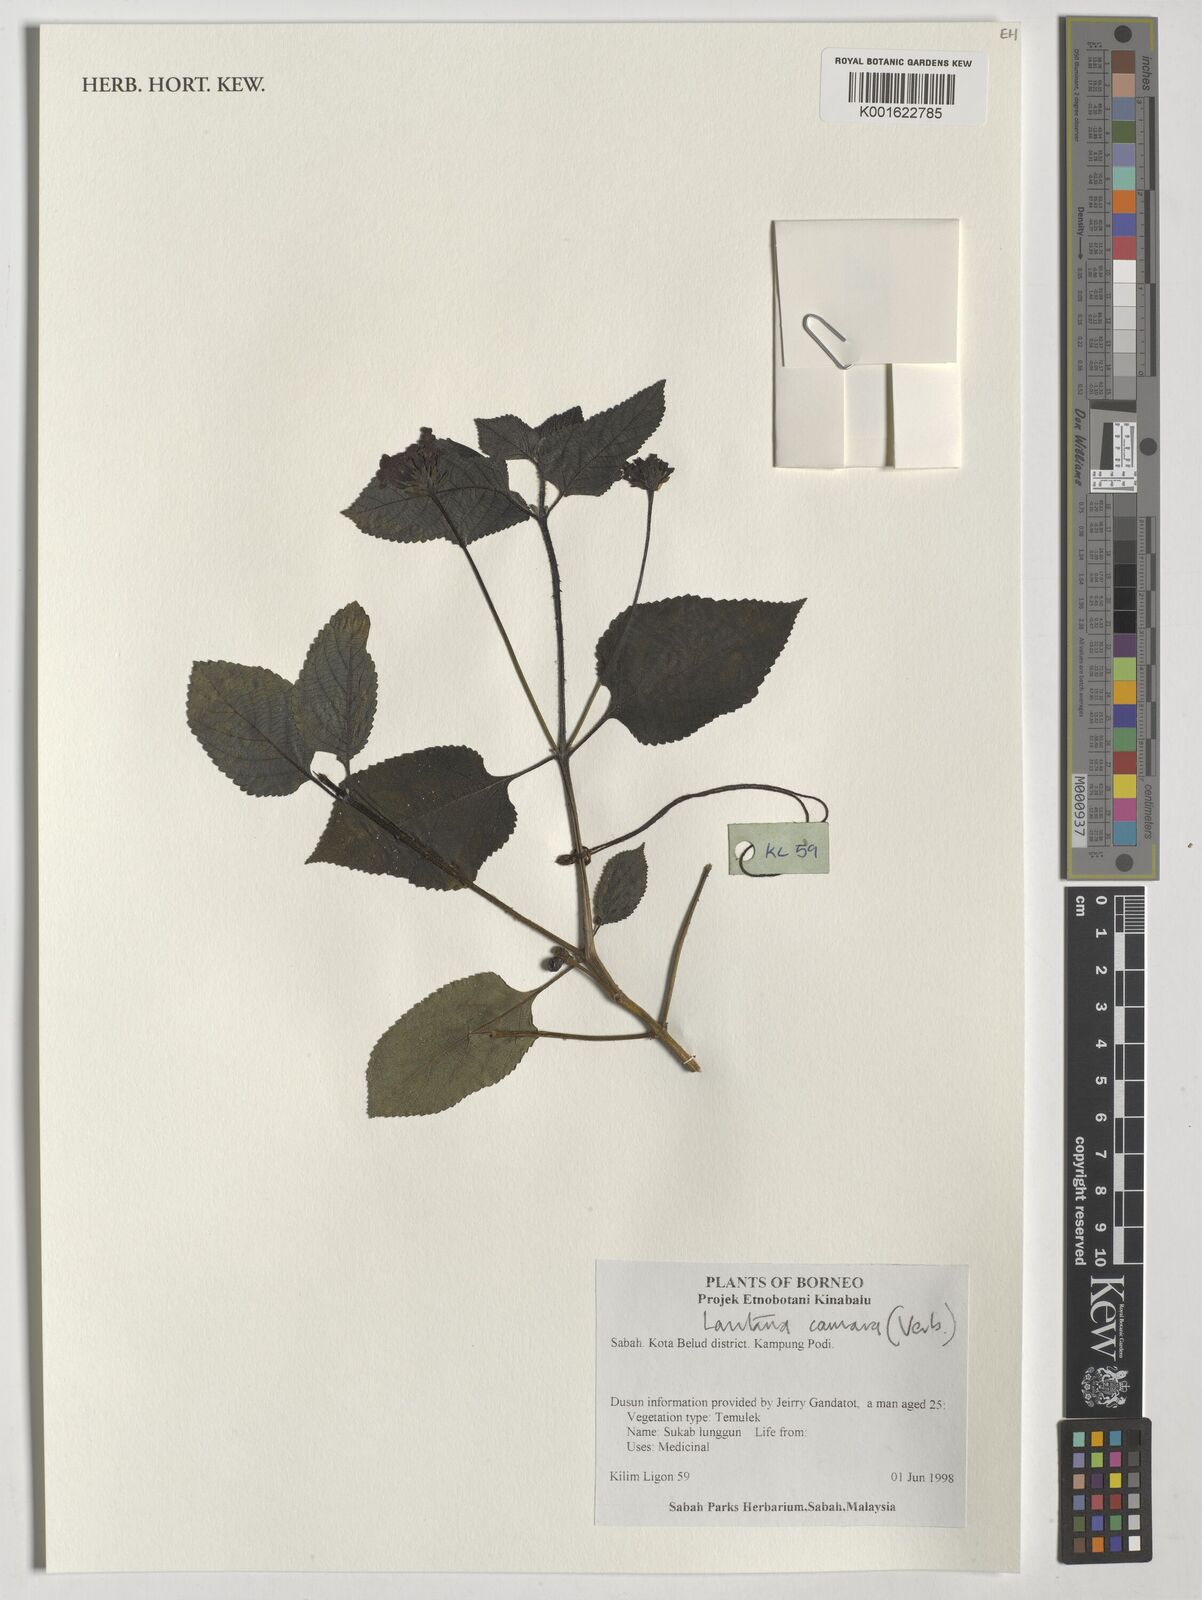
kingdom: Plantae
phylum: Tracheophyta
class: Magnoliopsida
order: Lamiales
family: Verbenaceae
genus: Lantana
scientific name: Lantana camara
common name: Lantana
